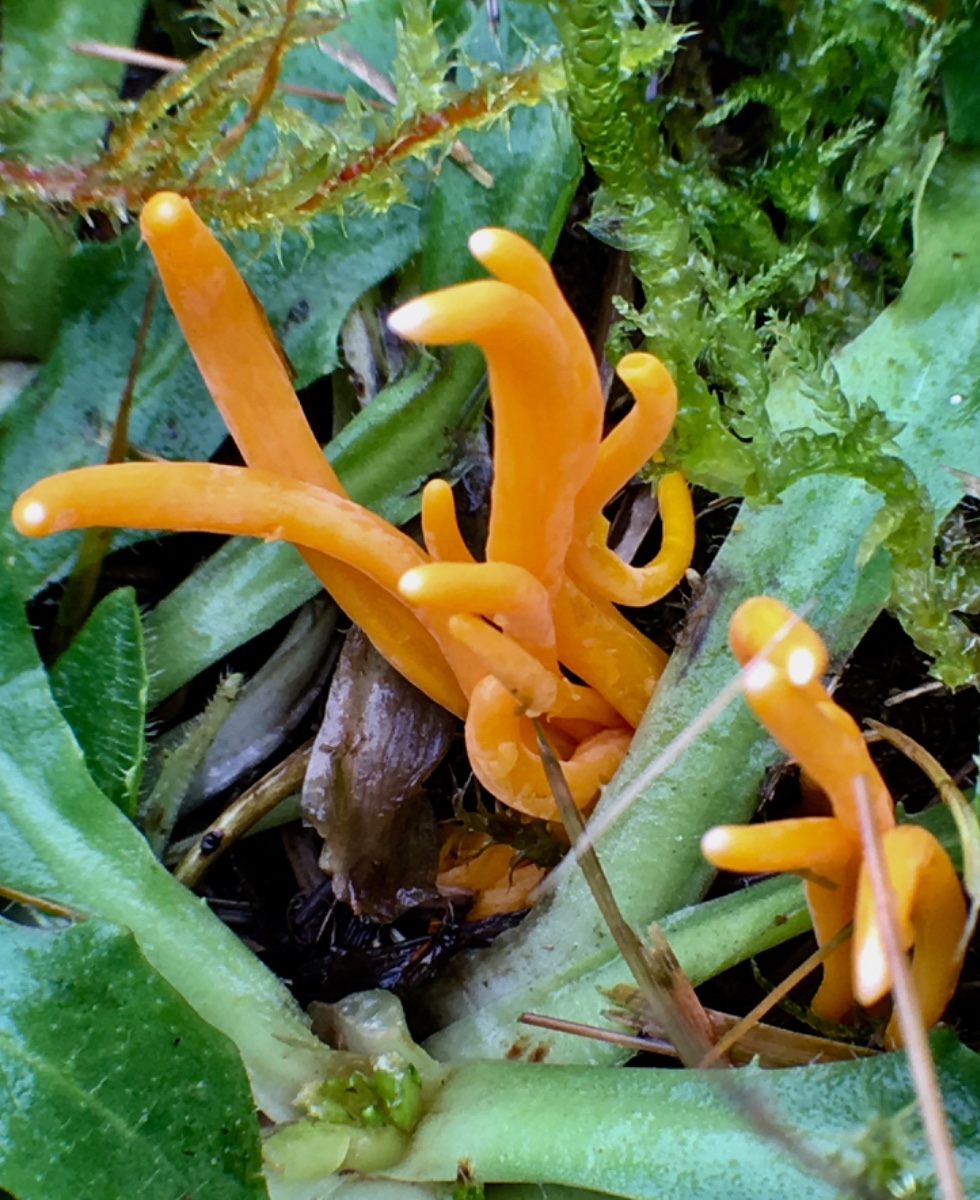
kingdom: Fungi
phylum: Basidiomycota
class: Agaricomycetes
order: Agaricales
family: Clavariaceae
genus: Clavulinopsis
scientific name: Clavulinopsis
